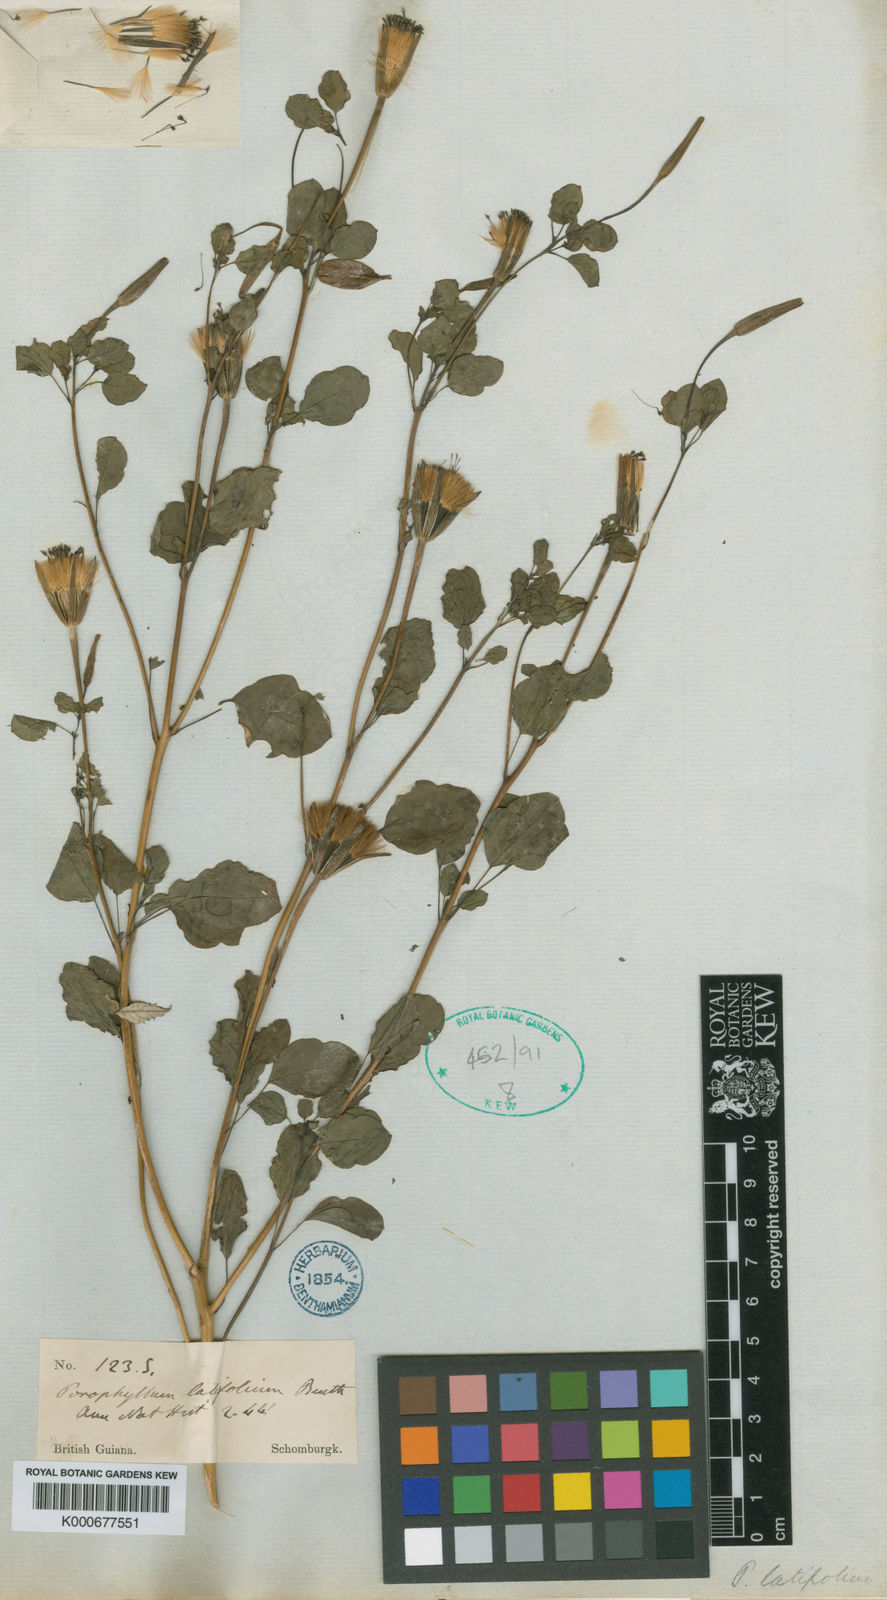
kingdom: Plantae
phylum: Tracheophyta
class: Magnoliopsida
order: Asterales
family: Asteraceae
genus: Porophyllum
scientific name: Porophyllum ruderale
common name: Yerba porosa
